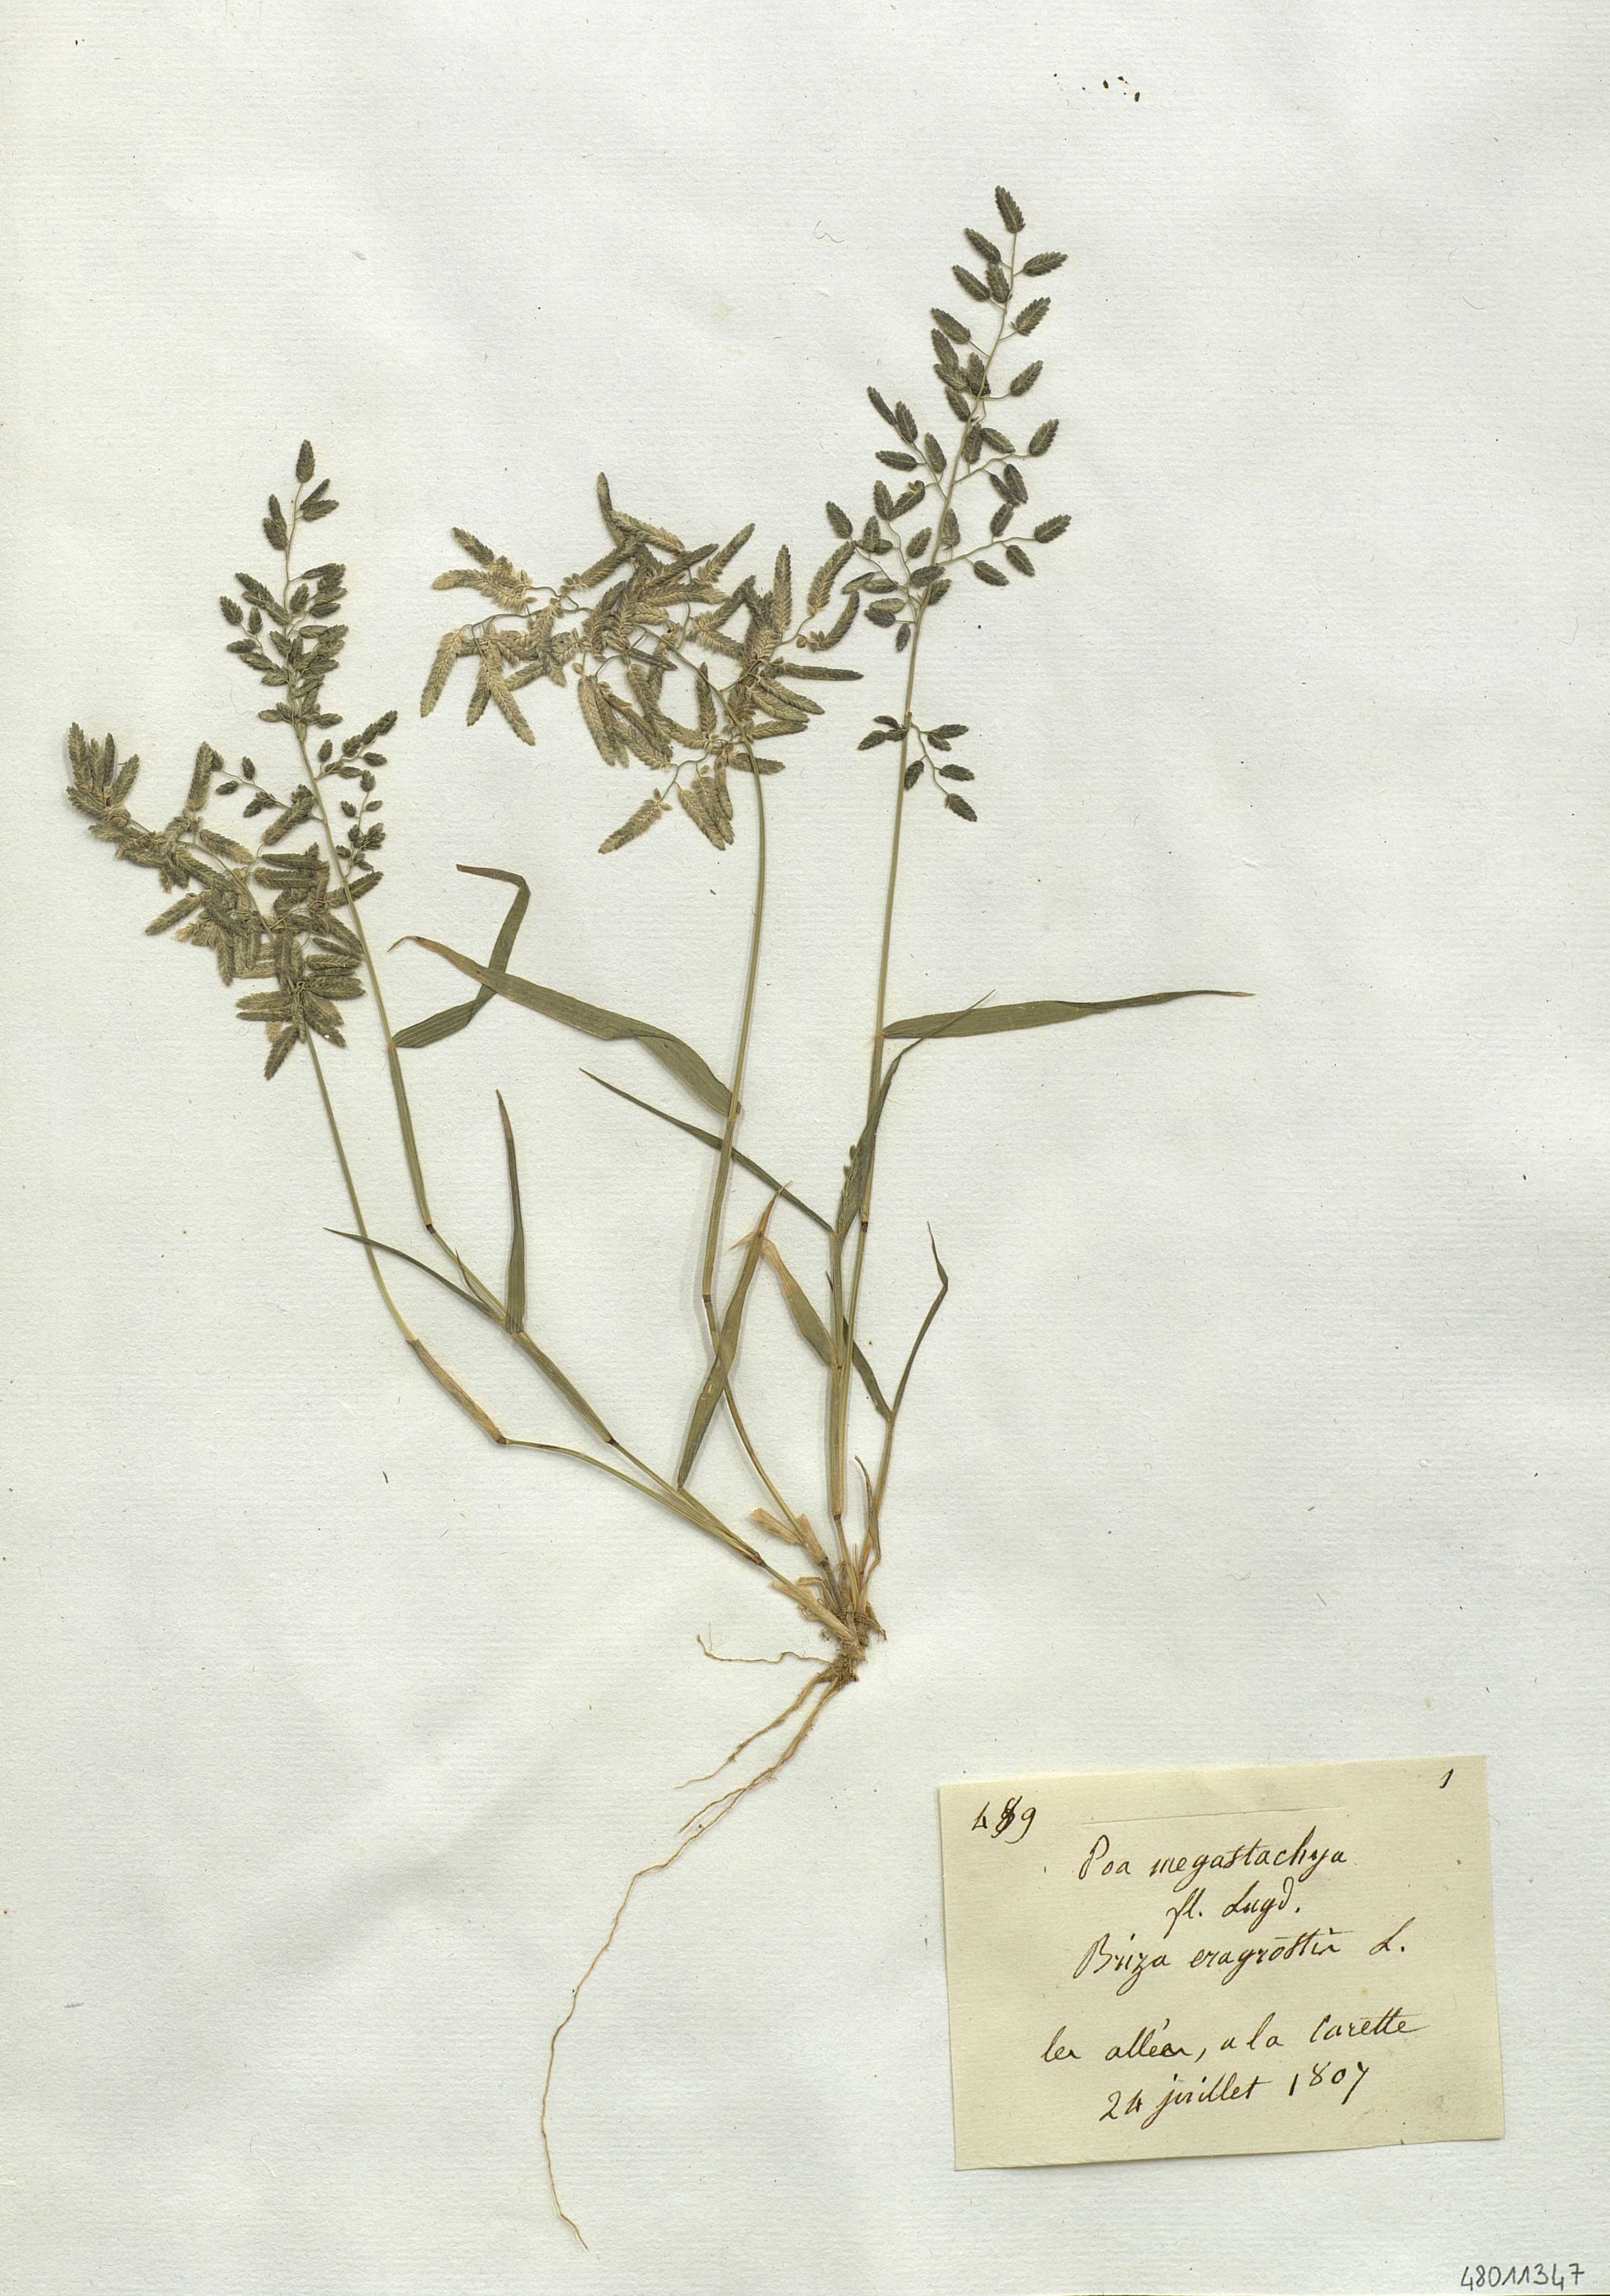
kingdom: Plantae
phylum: Tracheophyta
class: Liliopsida
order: Poales
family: Poaceae
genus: Eragrostis
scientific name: Eragrostis cilianensis
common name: Stinkgrass
